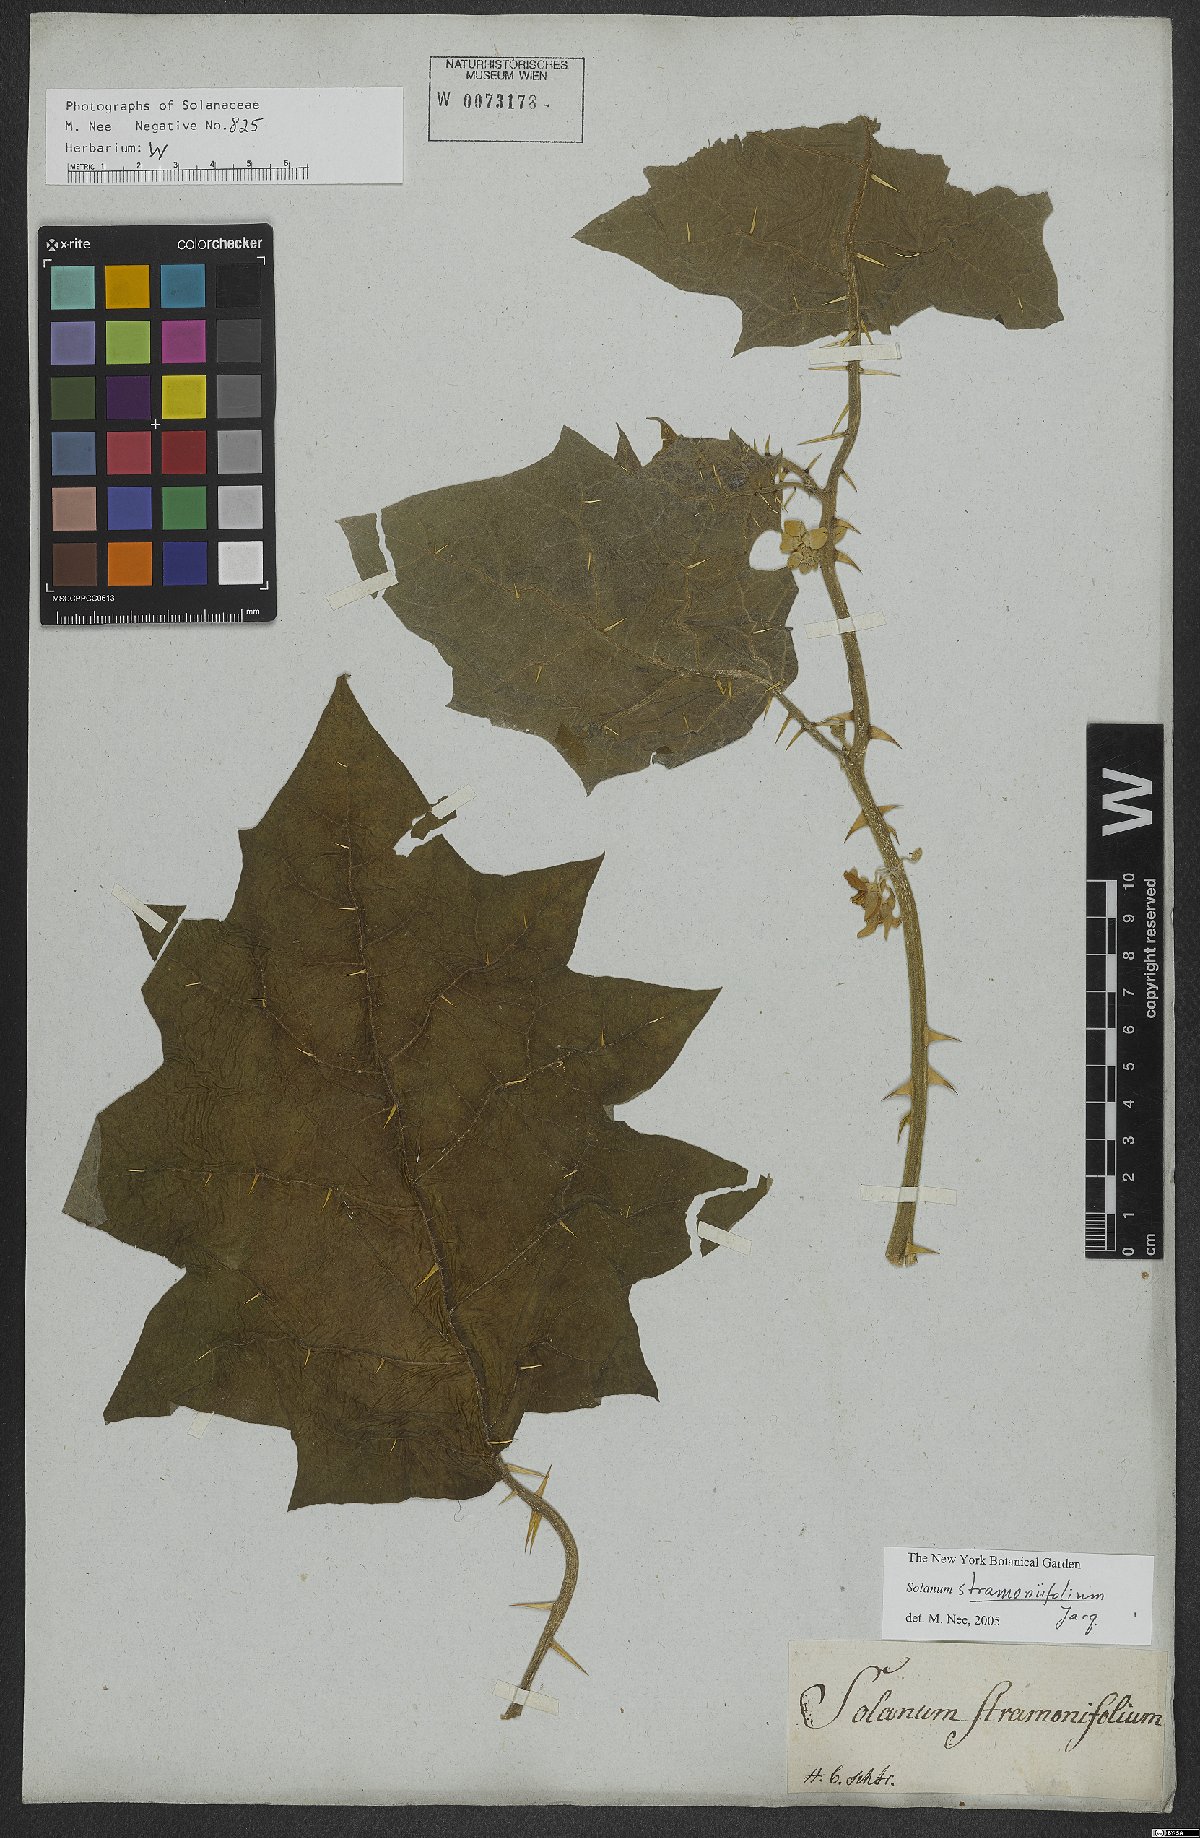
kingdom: Plantae
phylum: Tracheophyta
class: Magnoliopsida
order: Solanales
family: Solanaceae
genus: Solanum
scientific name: Solanum stramonifolium
